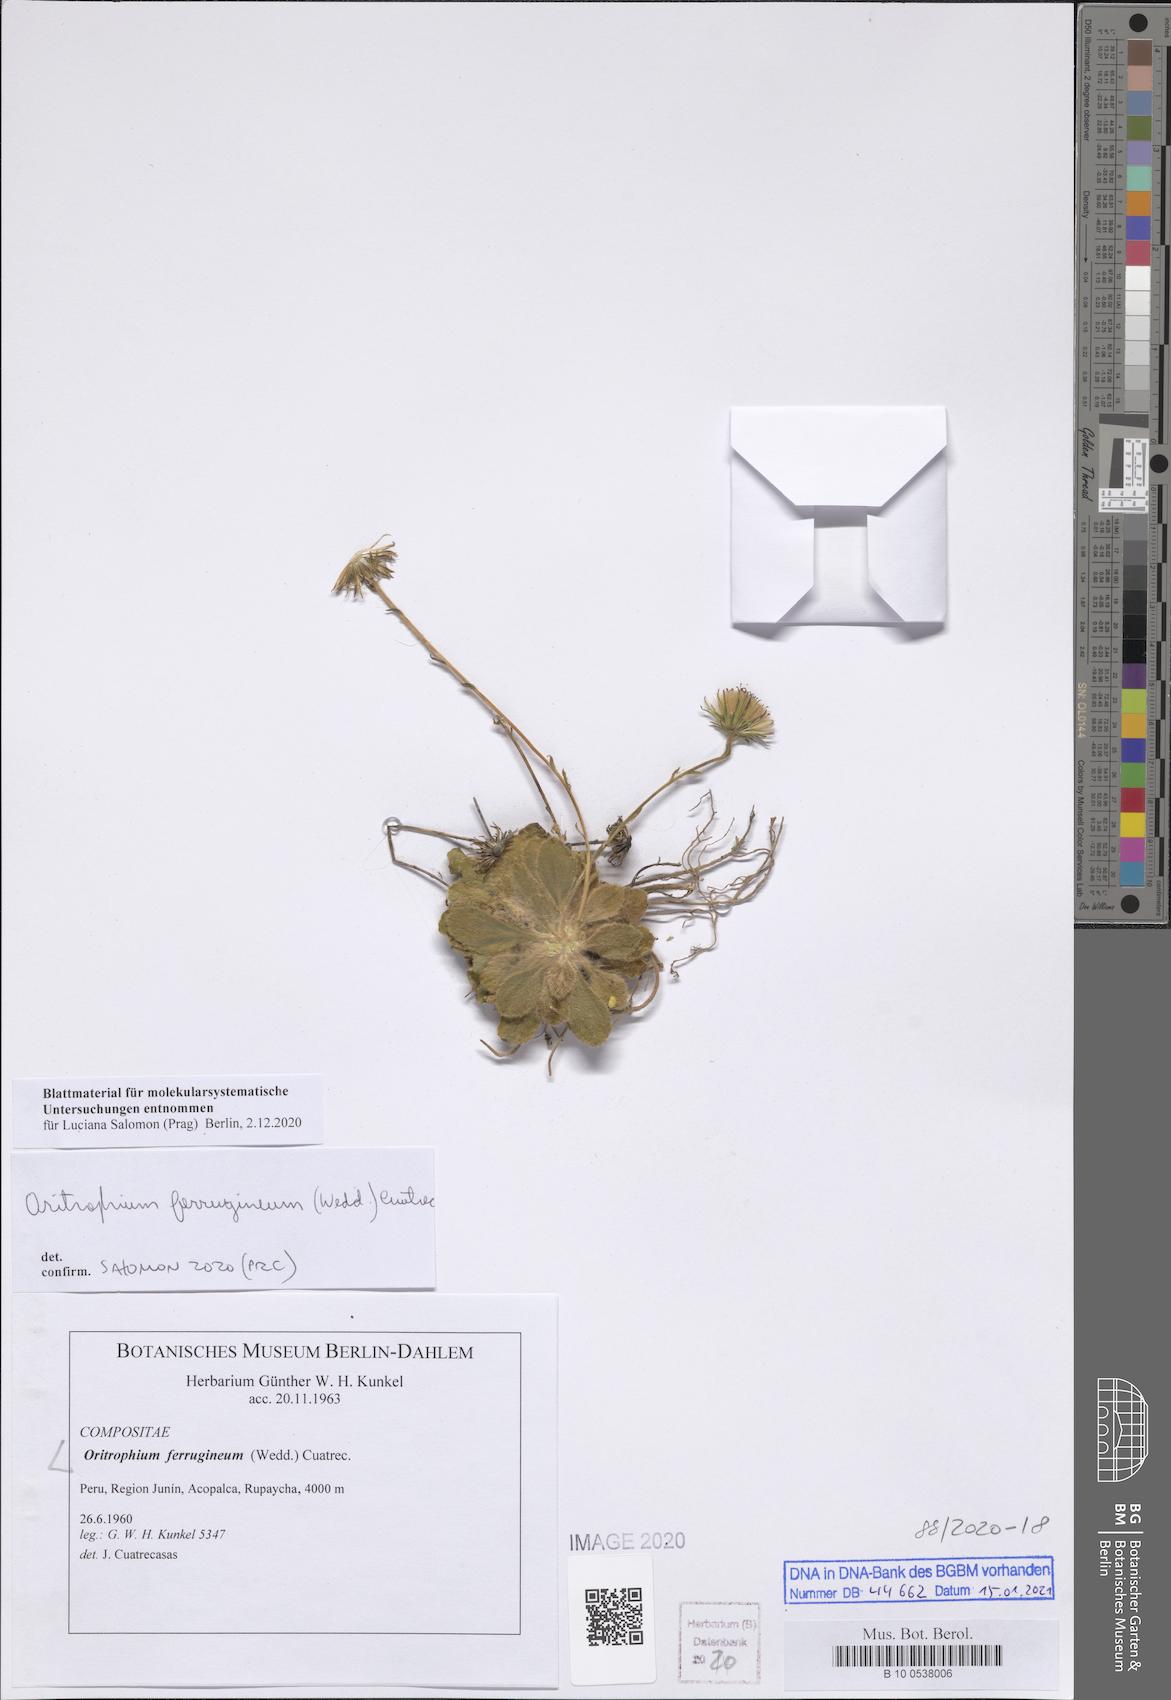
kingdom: Plantae
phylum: Tracheophyta
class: Magnoliopsida
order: Asterales
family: Asteraceae
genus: Oritrophium
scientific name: Oritrophium ferrugineum
